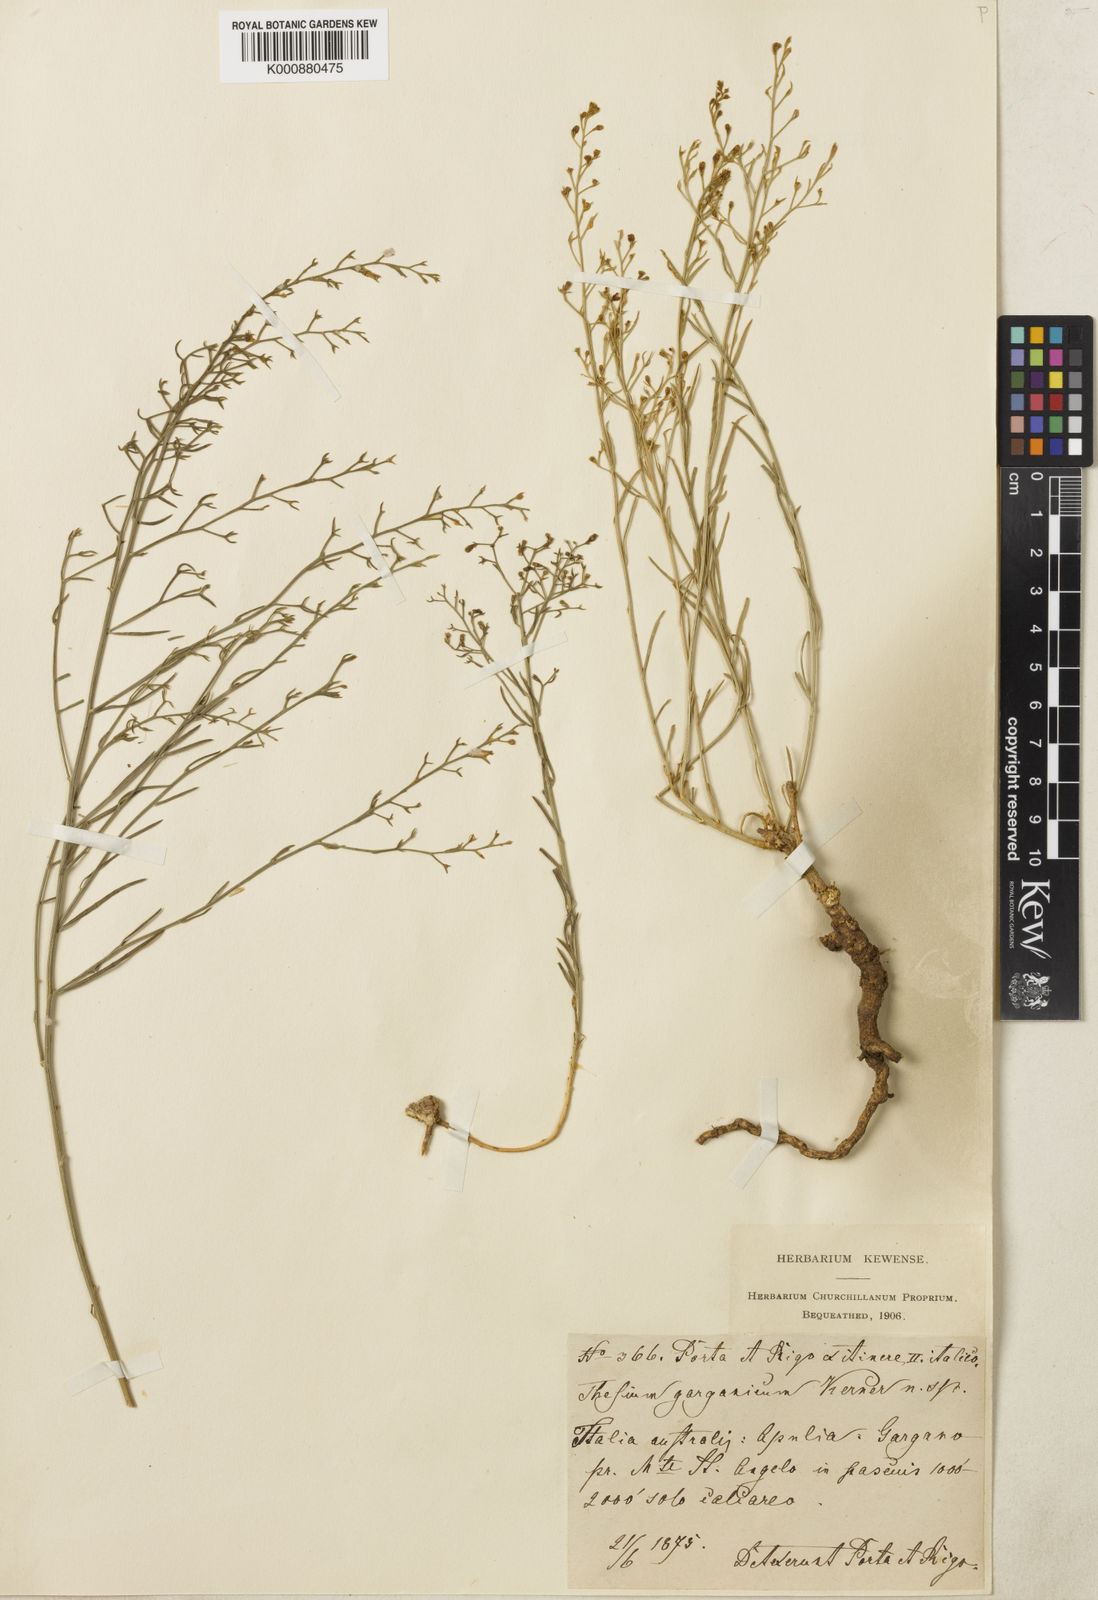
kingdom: Plantae
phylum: Tracheophyta
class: Magnoliopsida
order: Santalales
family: Thesiaceae
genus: Thesium
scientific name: Thesium
